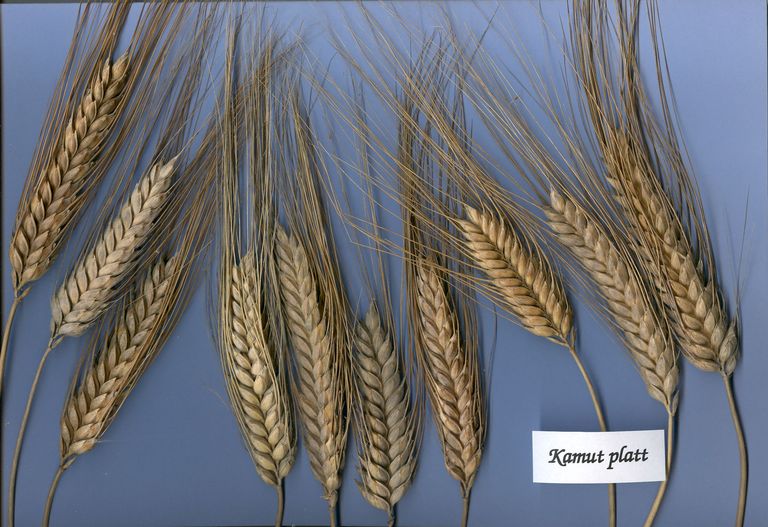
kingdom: Plantae
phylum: Tracheophyta
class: Liliopsida
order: Poales
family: Poaceae
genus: Triticum
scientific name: Triticum turgidum
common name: Rivet wheat
